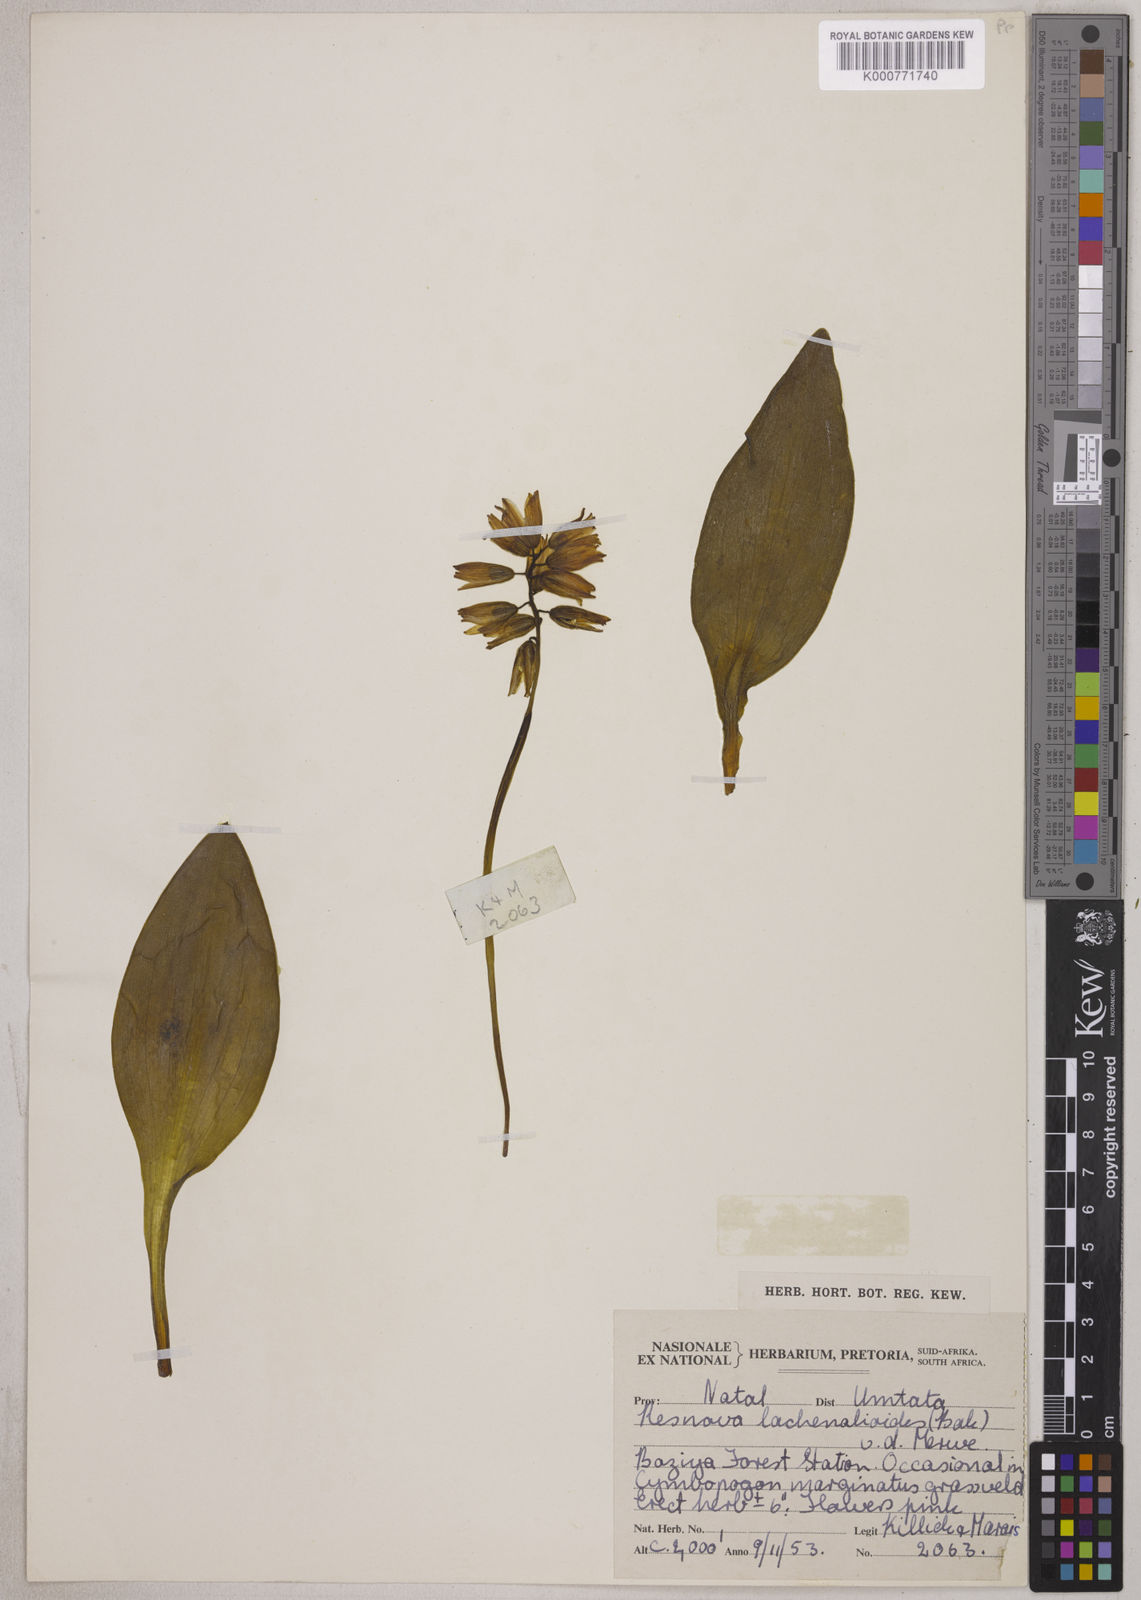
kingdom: Plantae
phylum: Tracheophyta
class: Liliopsida
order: Asparagales
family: Asparagaceae
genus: Resnova
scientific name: Resnova lachenalioides
